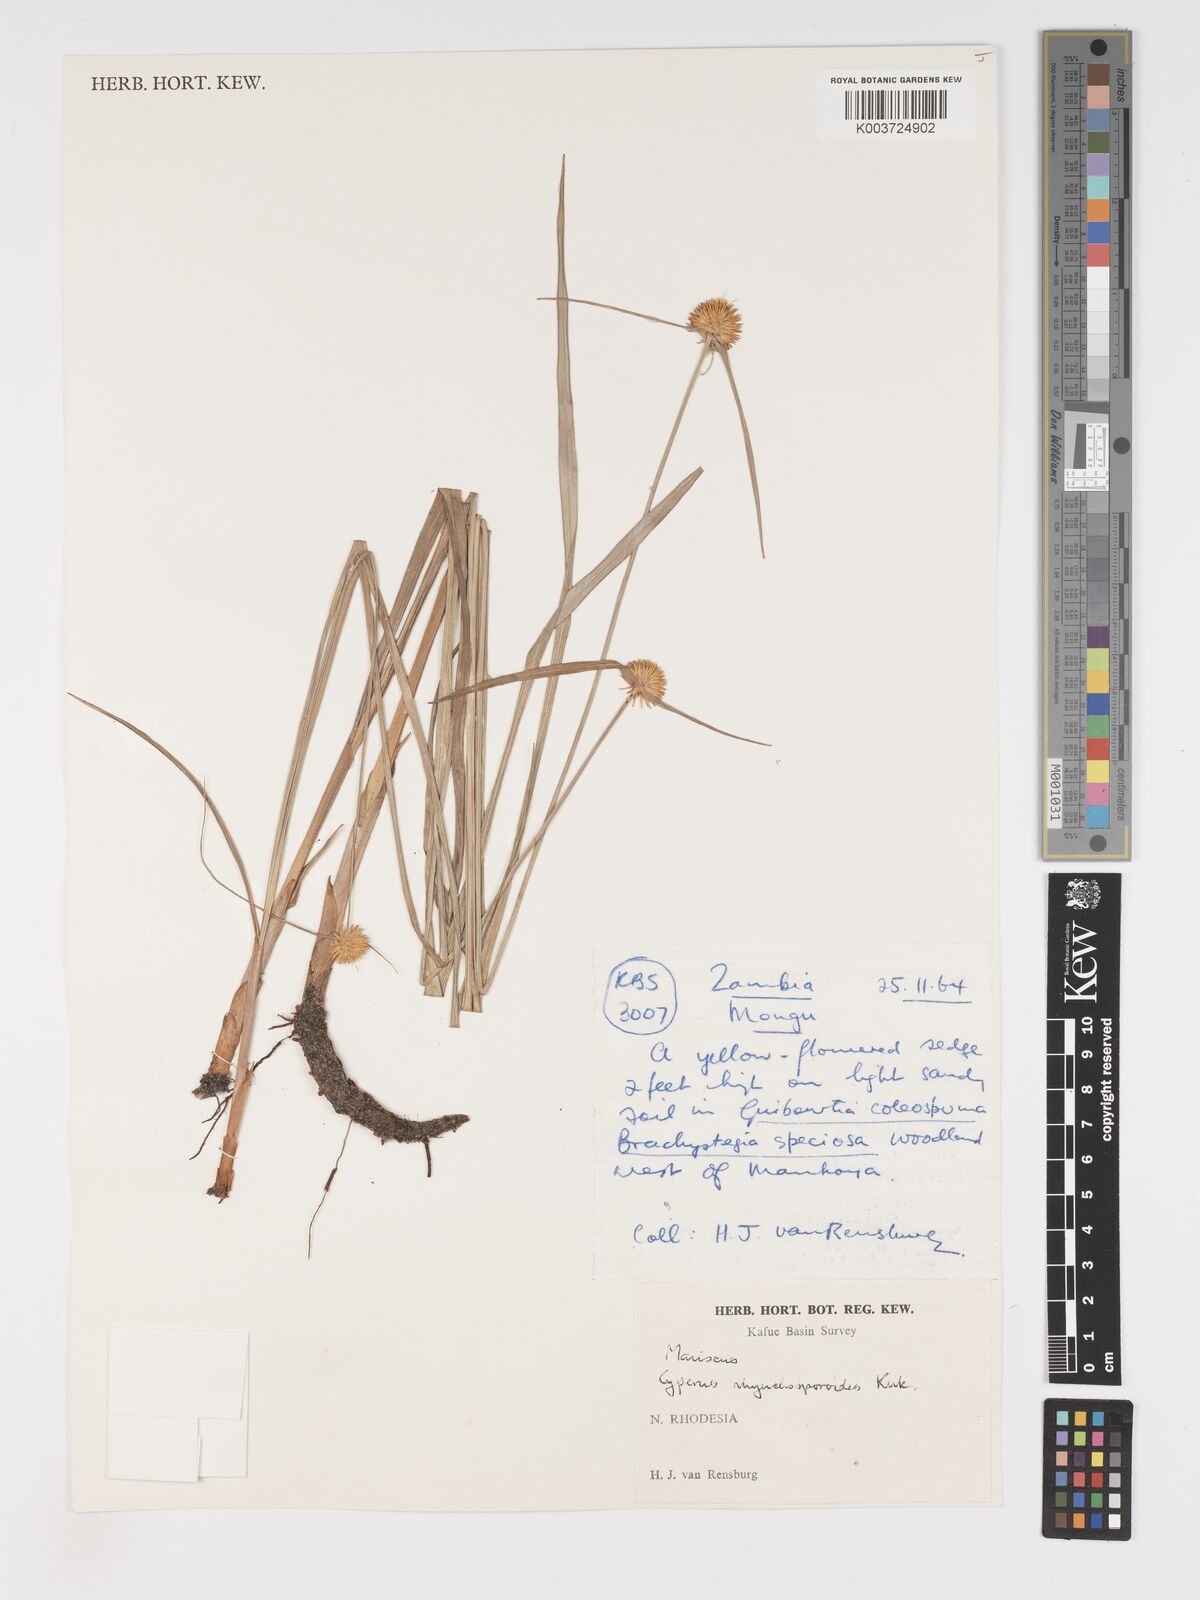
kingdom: Plantae
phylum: Tracheophyta
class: Liliopsida
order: Poales
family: Cyperaceae
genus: Cyperus
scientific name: Cyperus altochrysocephalus
